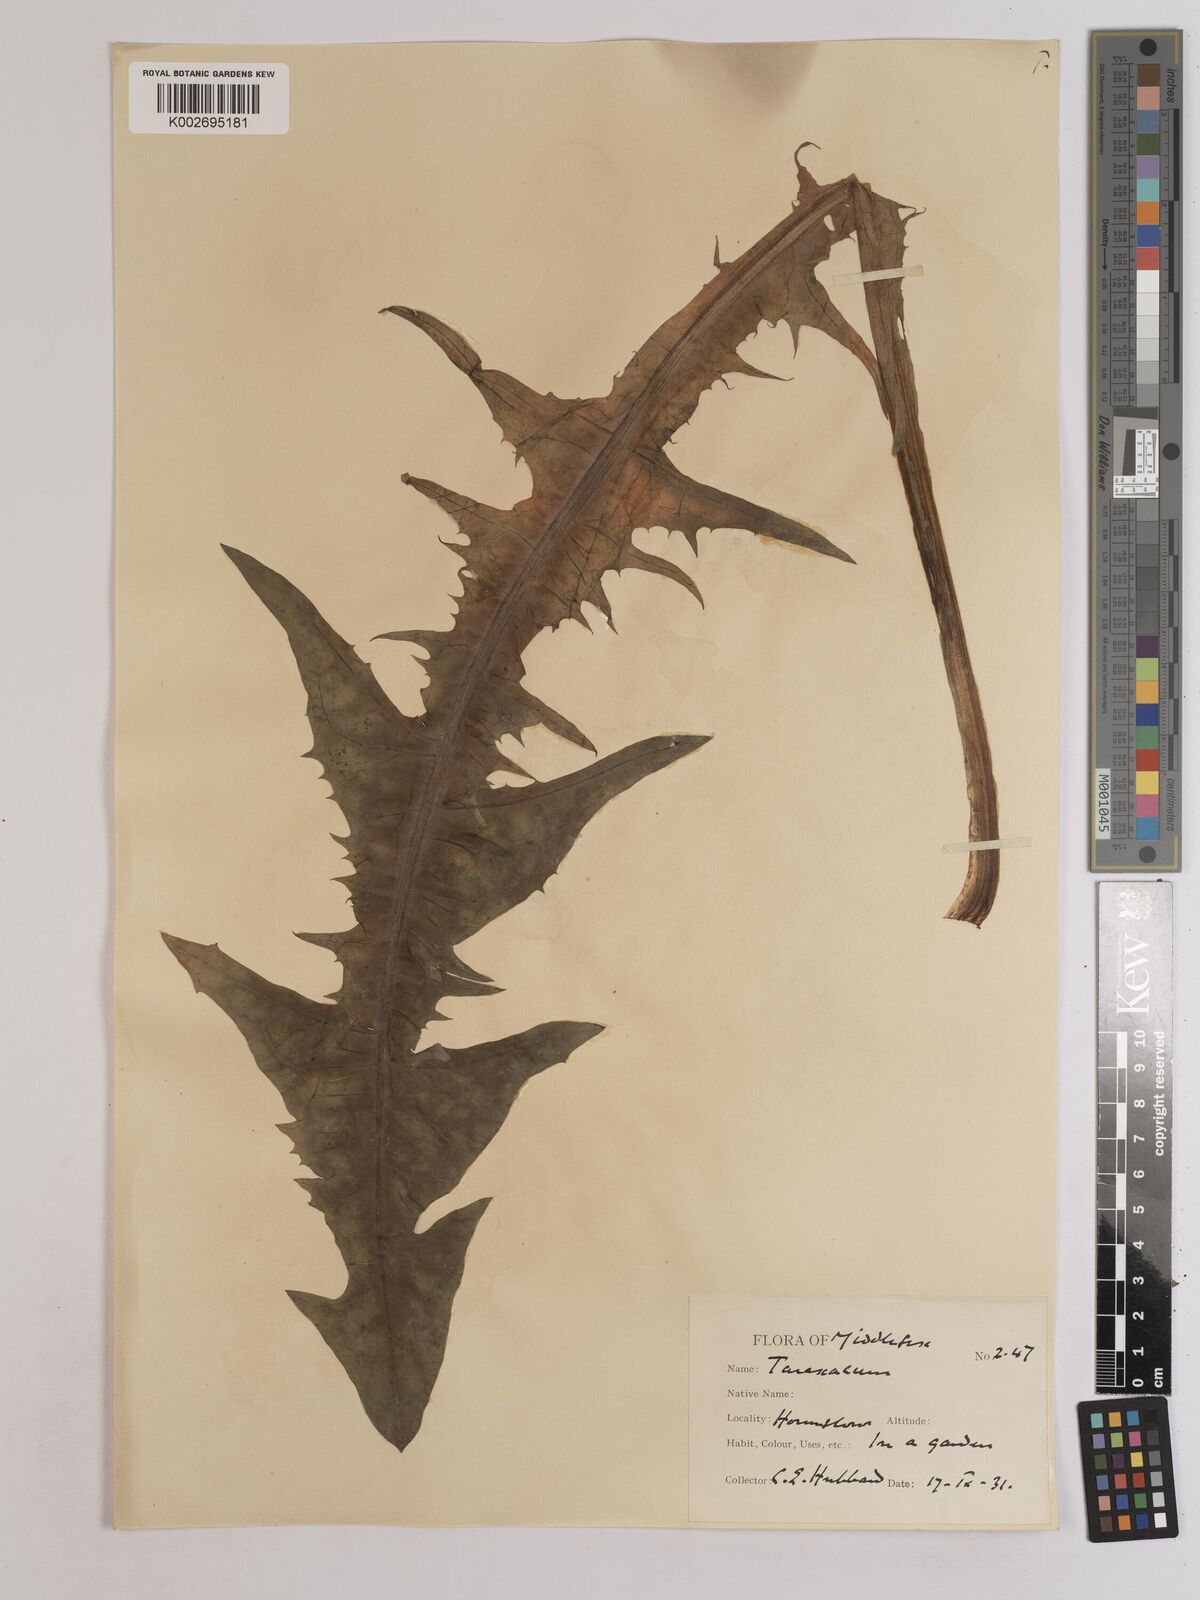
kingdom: Plantae
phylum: Tracheophyta
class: Magnoliopsida
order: Asterales
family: Asteraceae
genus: Taraxacum
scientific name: Taraxacum officinale
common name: Common dandelion
